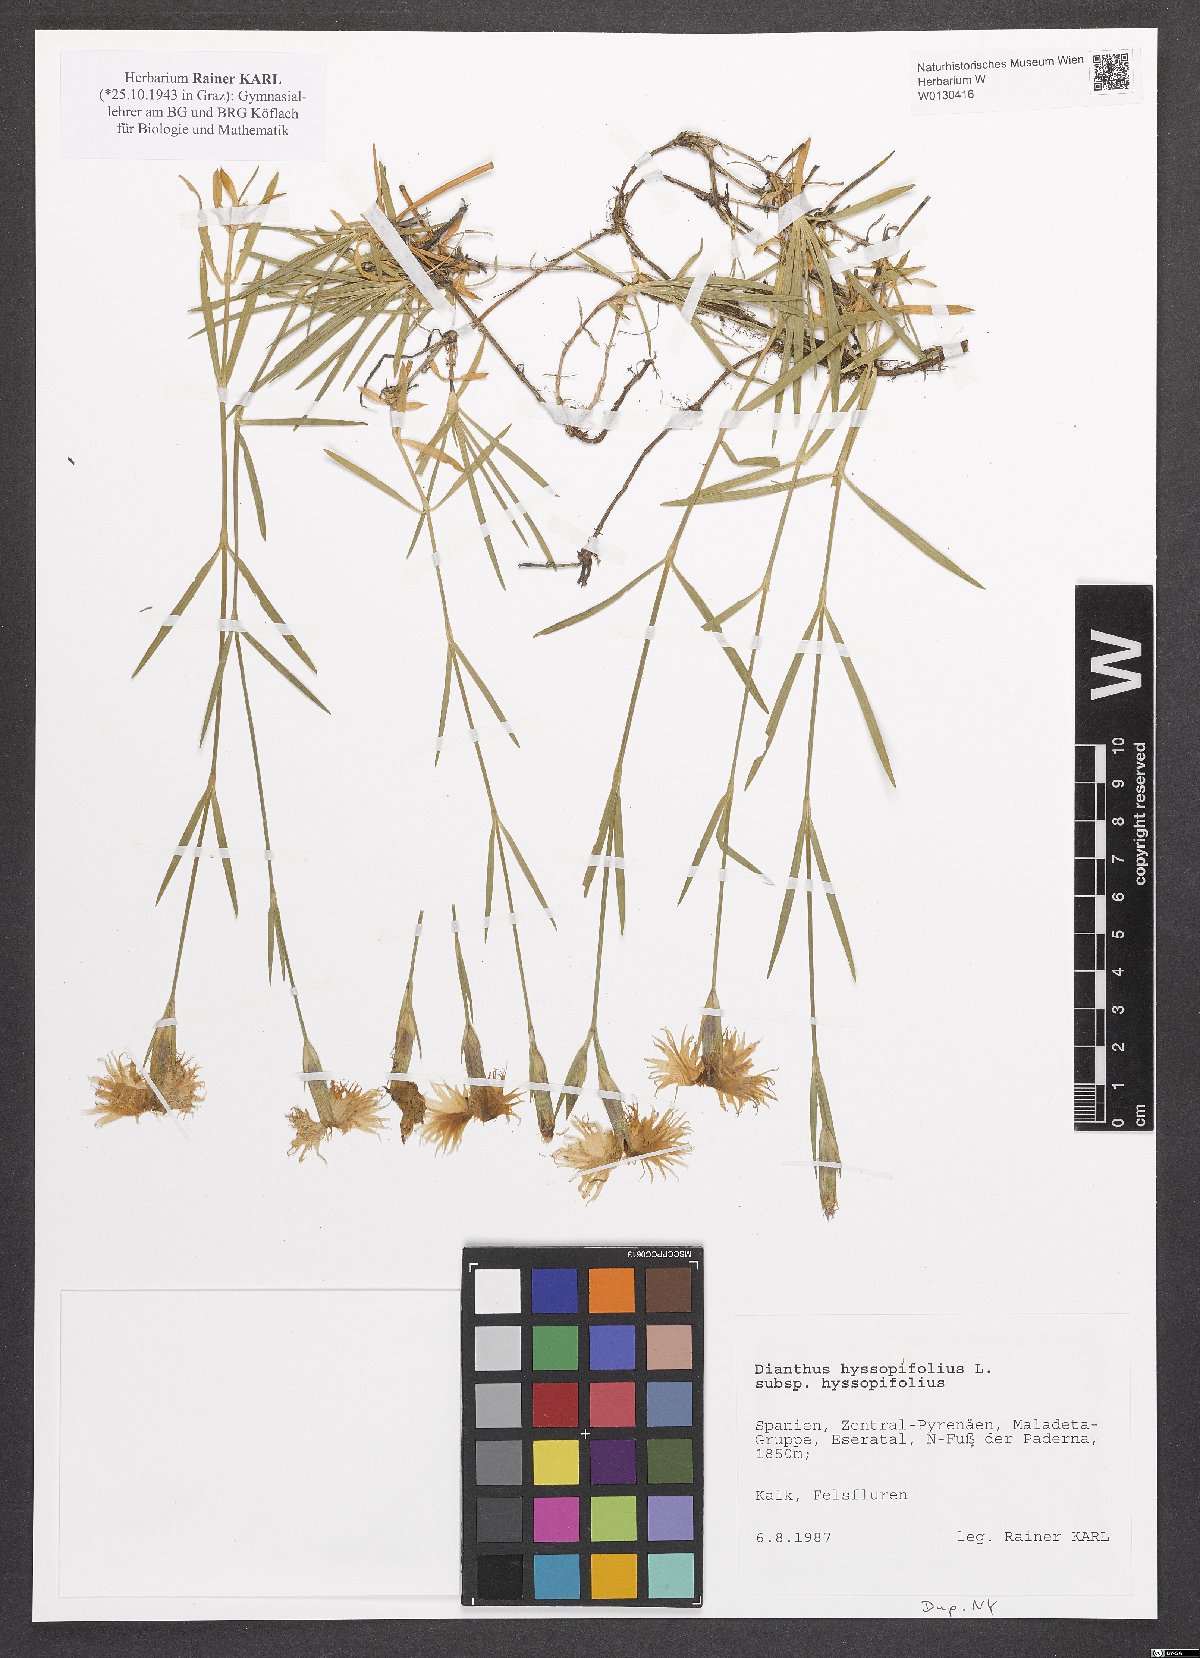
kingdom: Plantae
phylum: Tracheophyta
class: Magnoliopsida
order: Caryophyllales
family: Caryophyllaceae
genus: Dianthus
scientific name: Dianthus hyssopifolius
